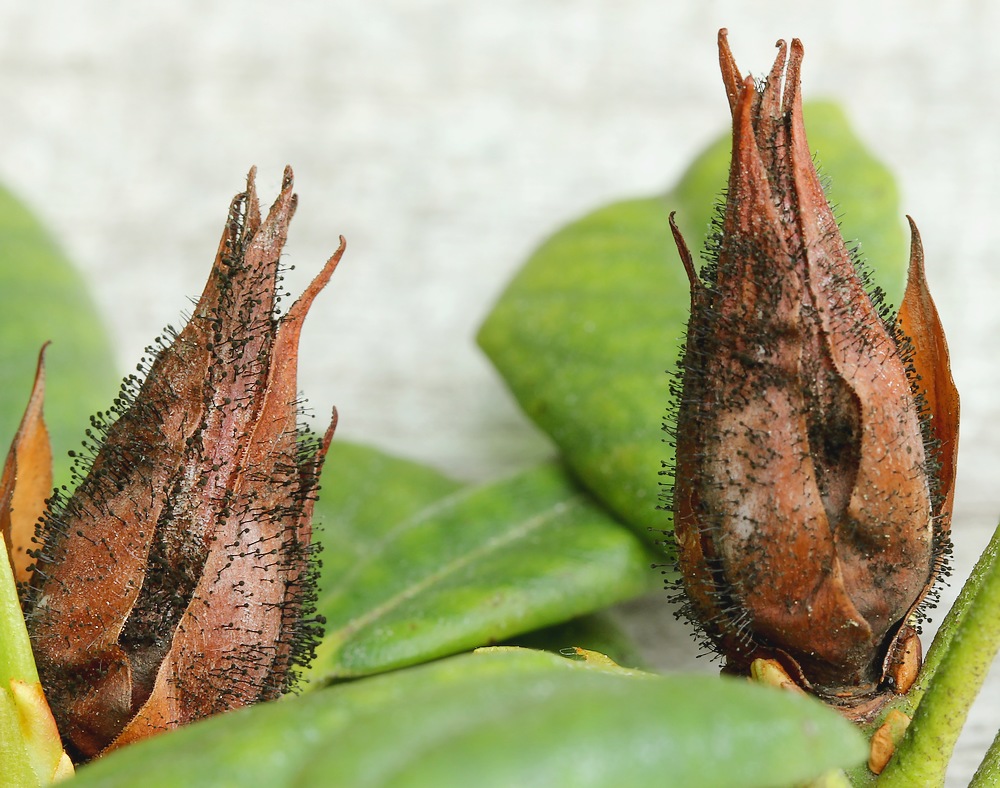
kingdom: Fungi
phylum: Ascomycota
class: Dothideomycetes
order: Pleosporales
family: Melanommataceae
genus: Seifertia
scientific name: Seifertia azaleae
